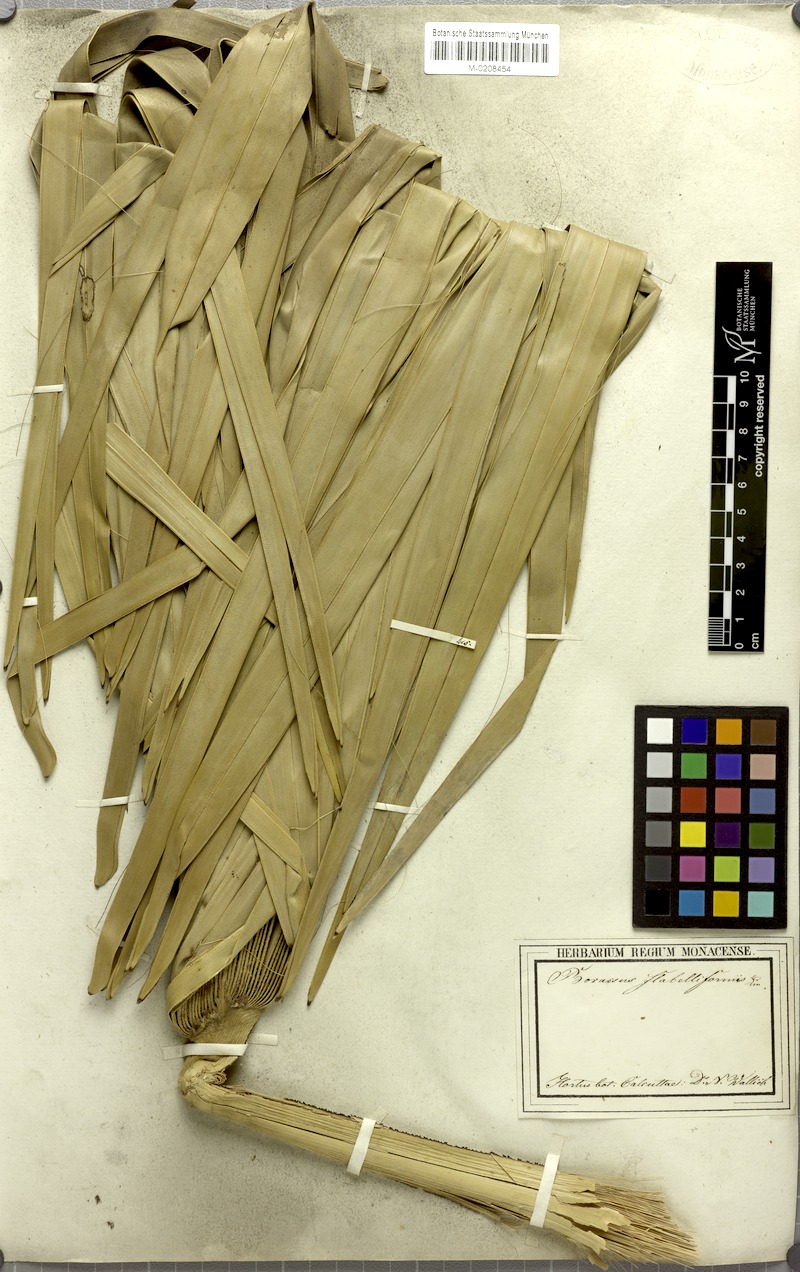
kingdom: Plantae
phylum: Tracheophyta
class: Liliopsida
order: Arecales
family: Arecaceae
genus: Borassus
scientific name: Borassus flabellifer
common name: Palmyra palm
